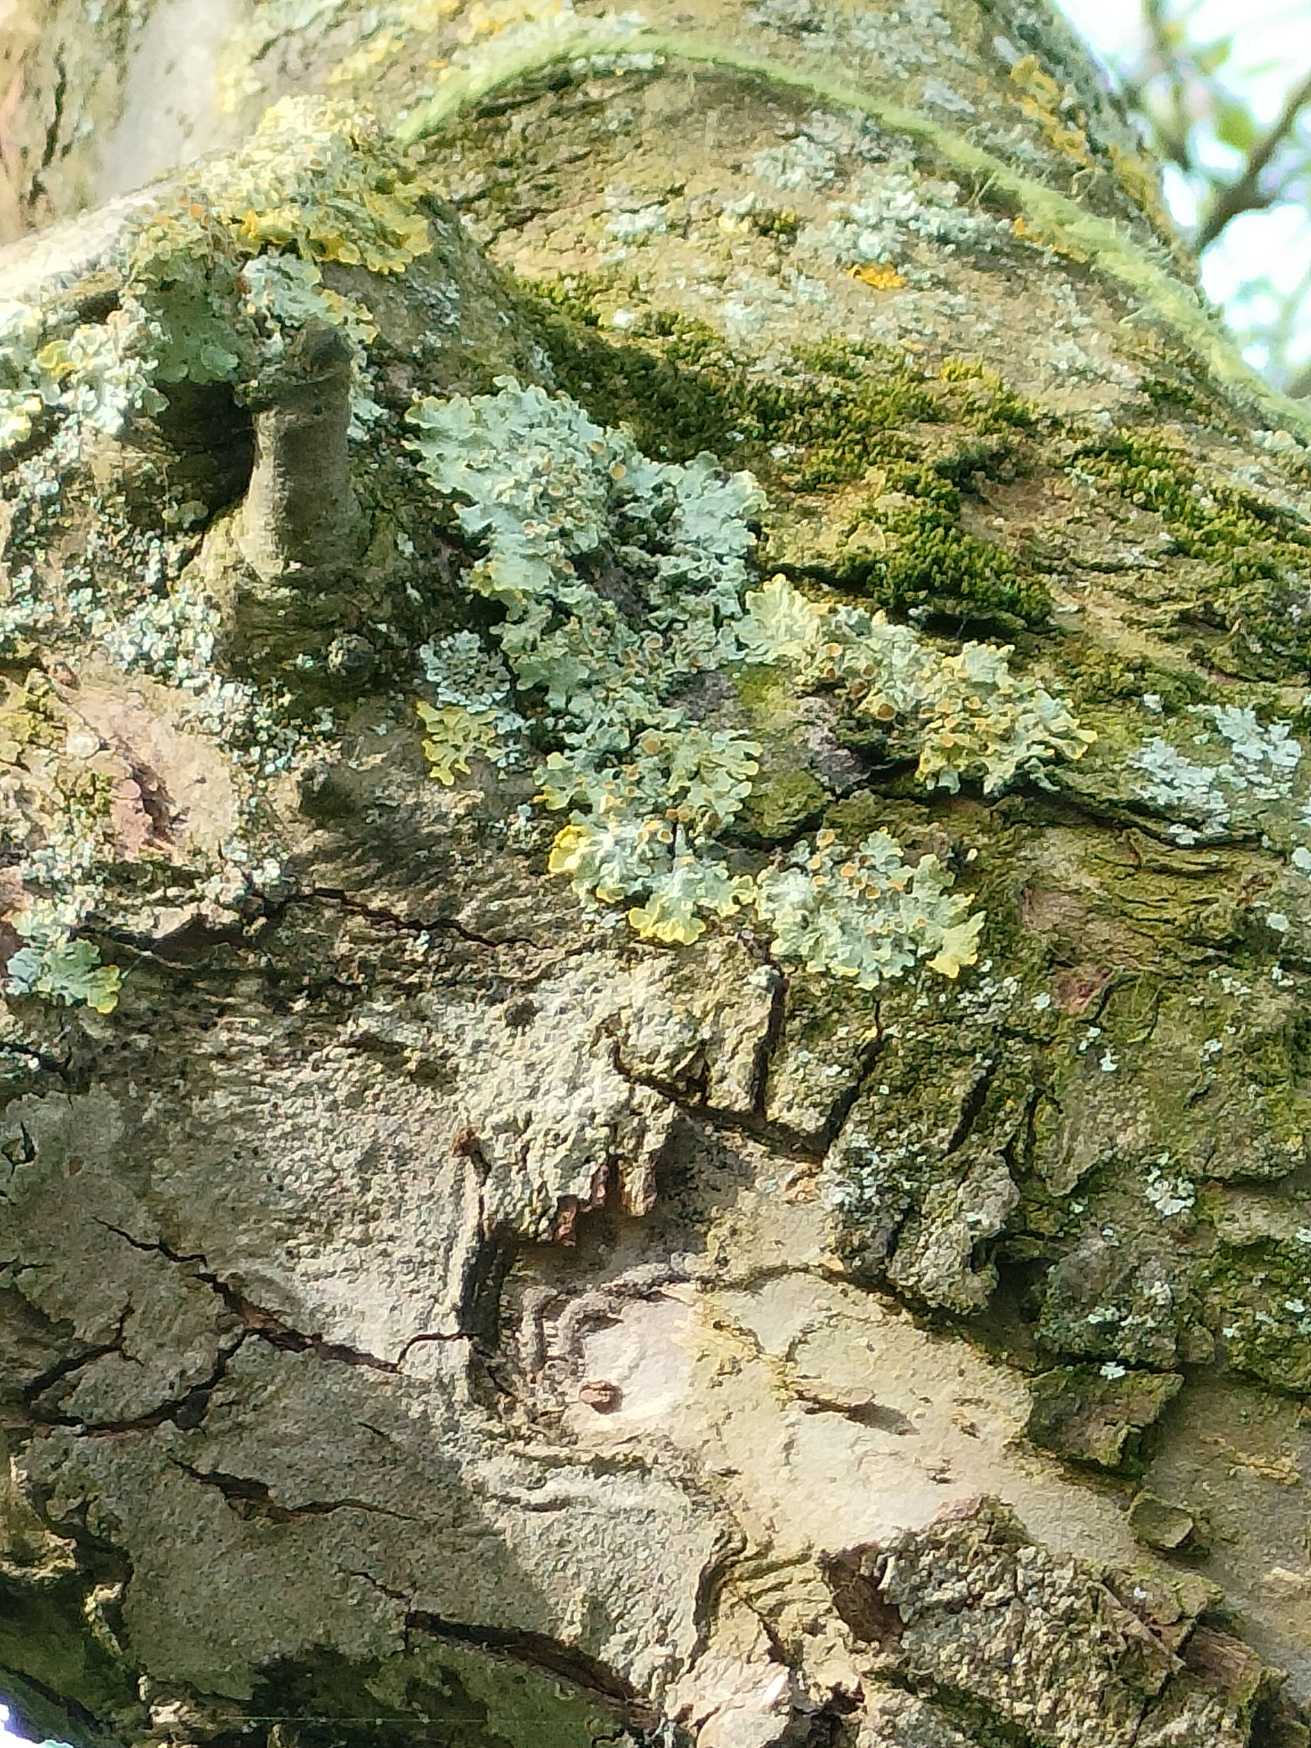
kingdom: Fungi
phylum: Ascomycota
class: Lecanoromycetes
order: Teloschistales
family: Teloschistaceae
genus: Xanthoria
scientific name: Xanthoria parietina
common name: Almindelig væggelav
